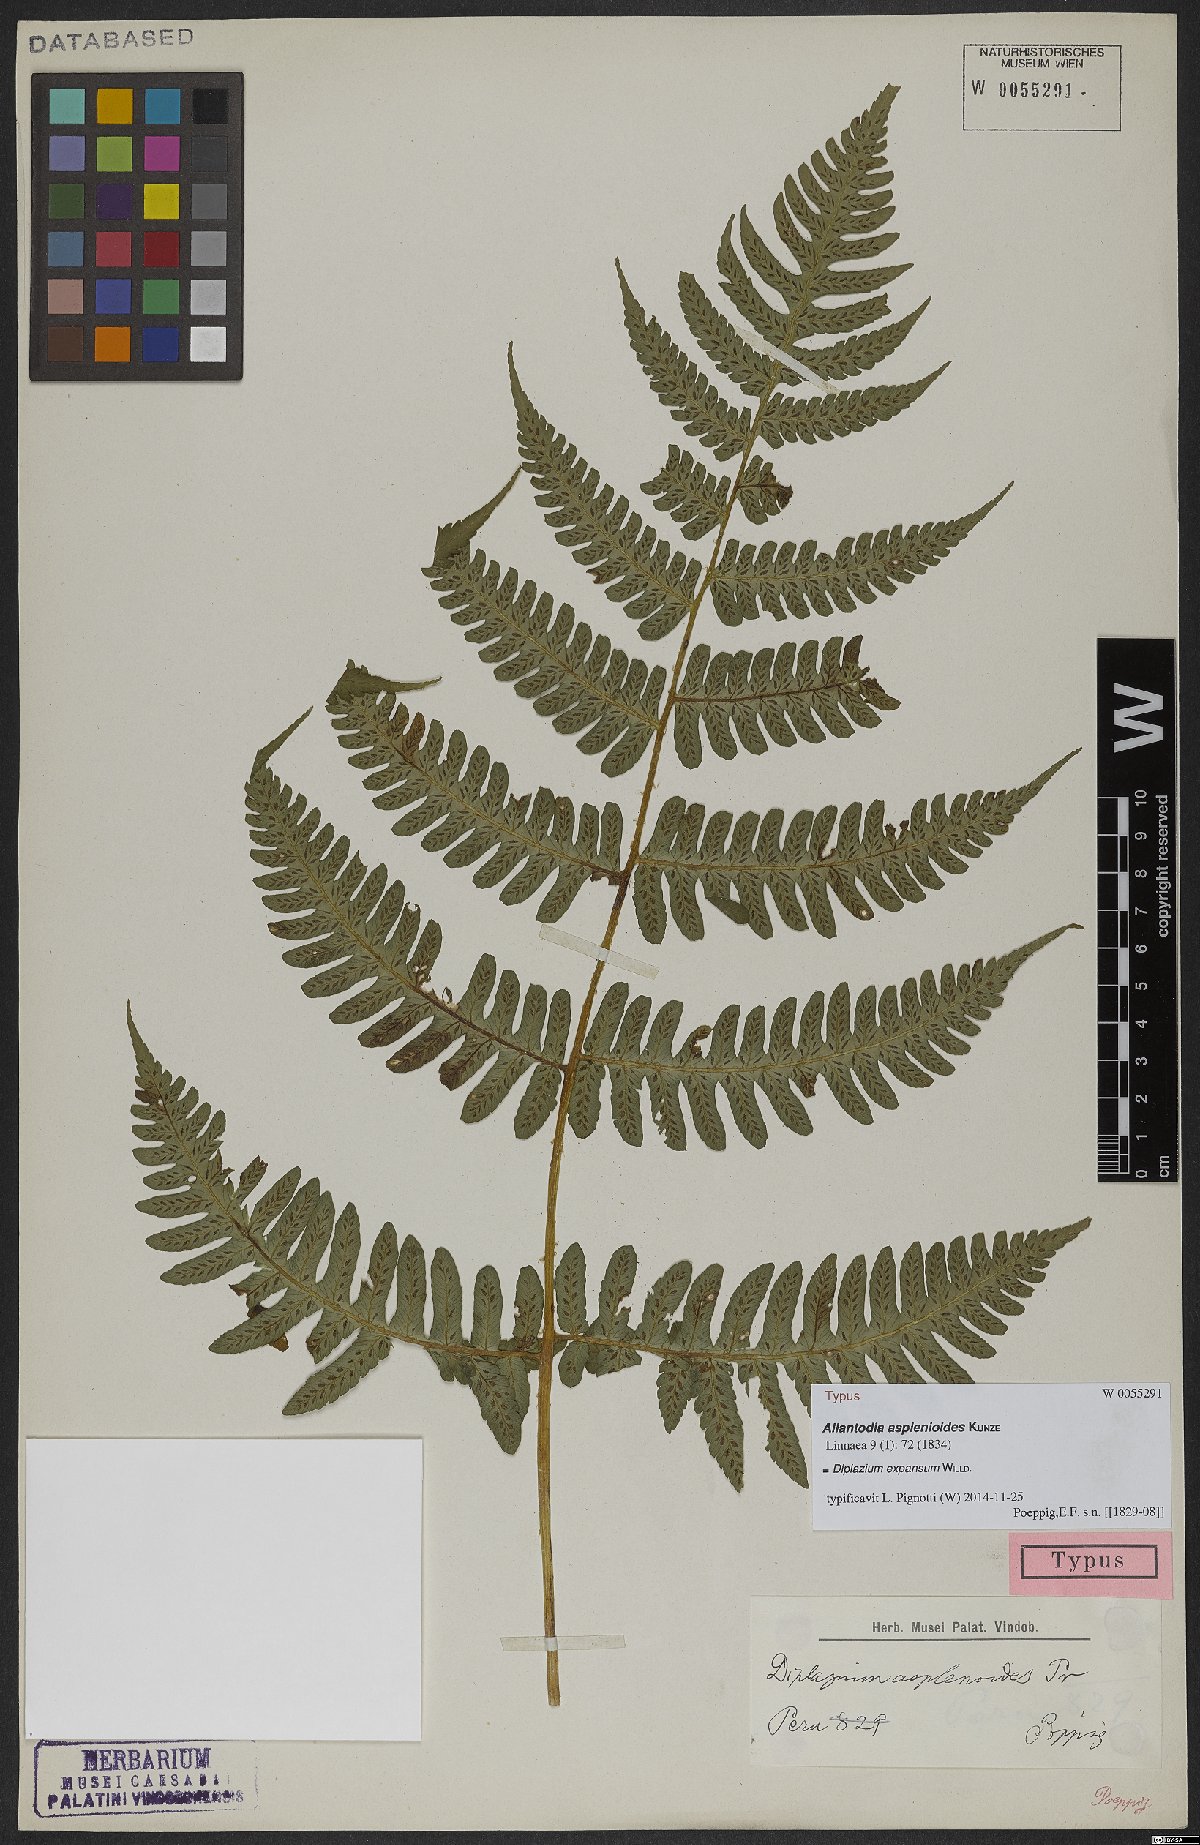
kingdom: Plantae
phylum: Tracheophyta
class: Polypodiopsida
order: Polypodiales
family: Athyriaceae
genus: Diplazium
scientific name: Diplazium expansum
